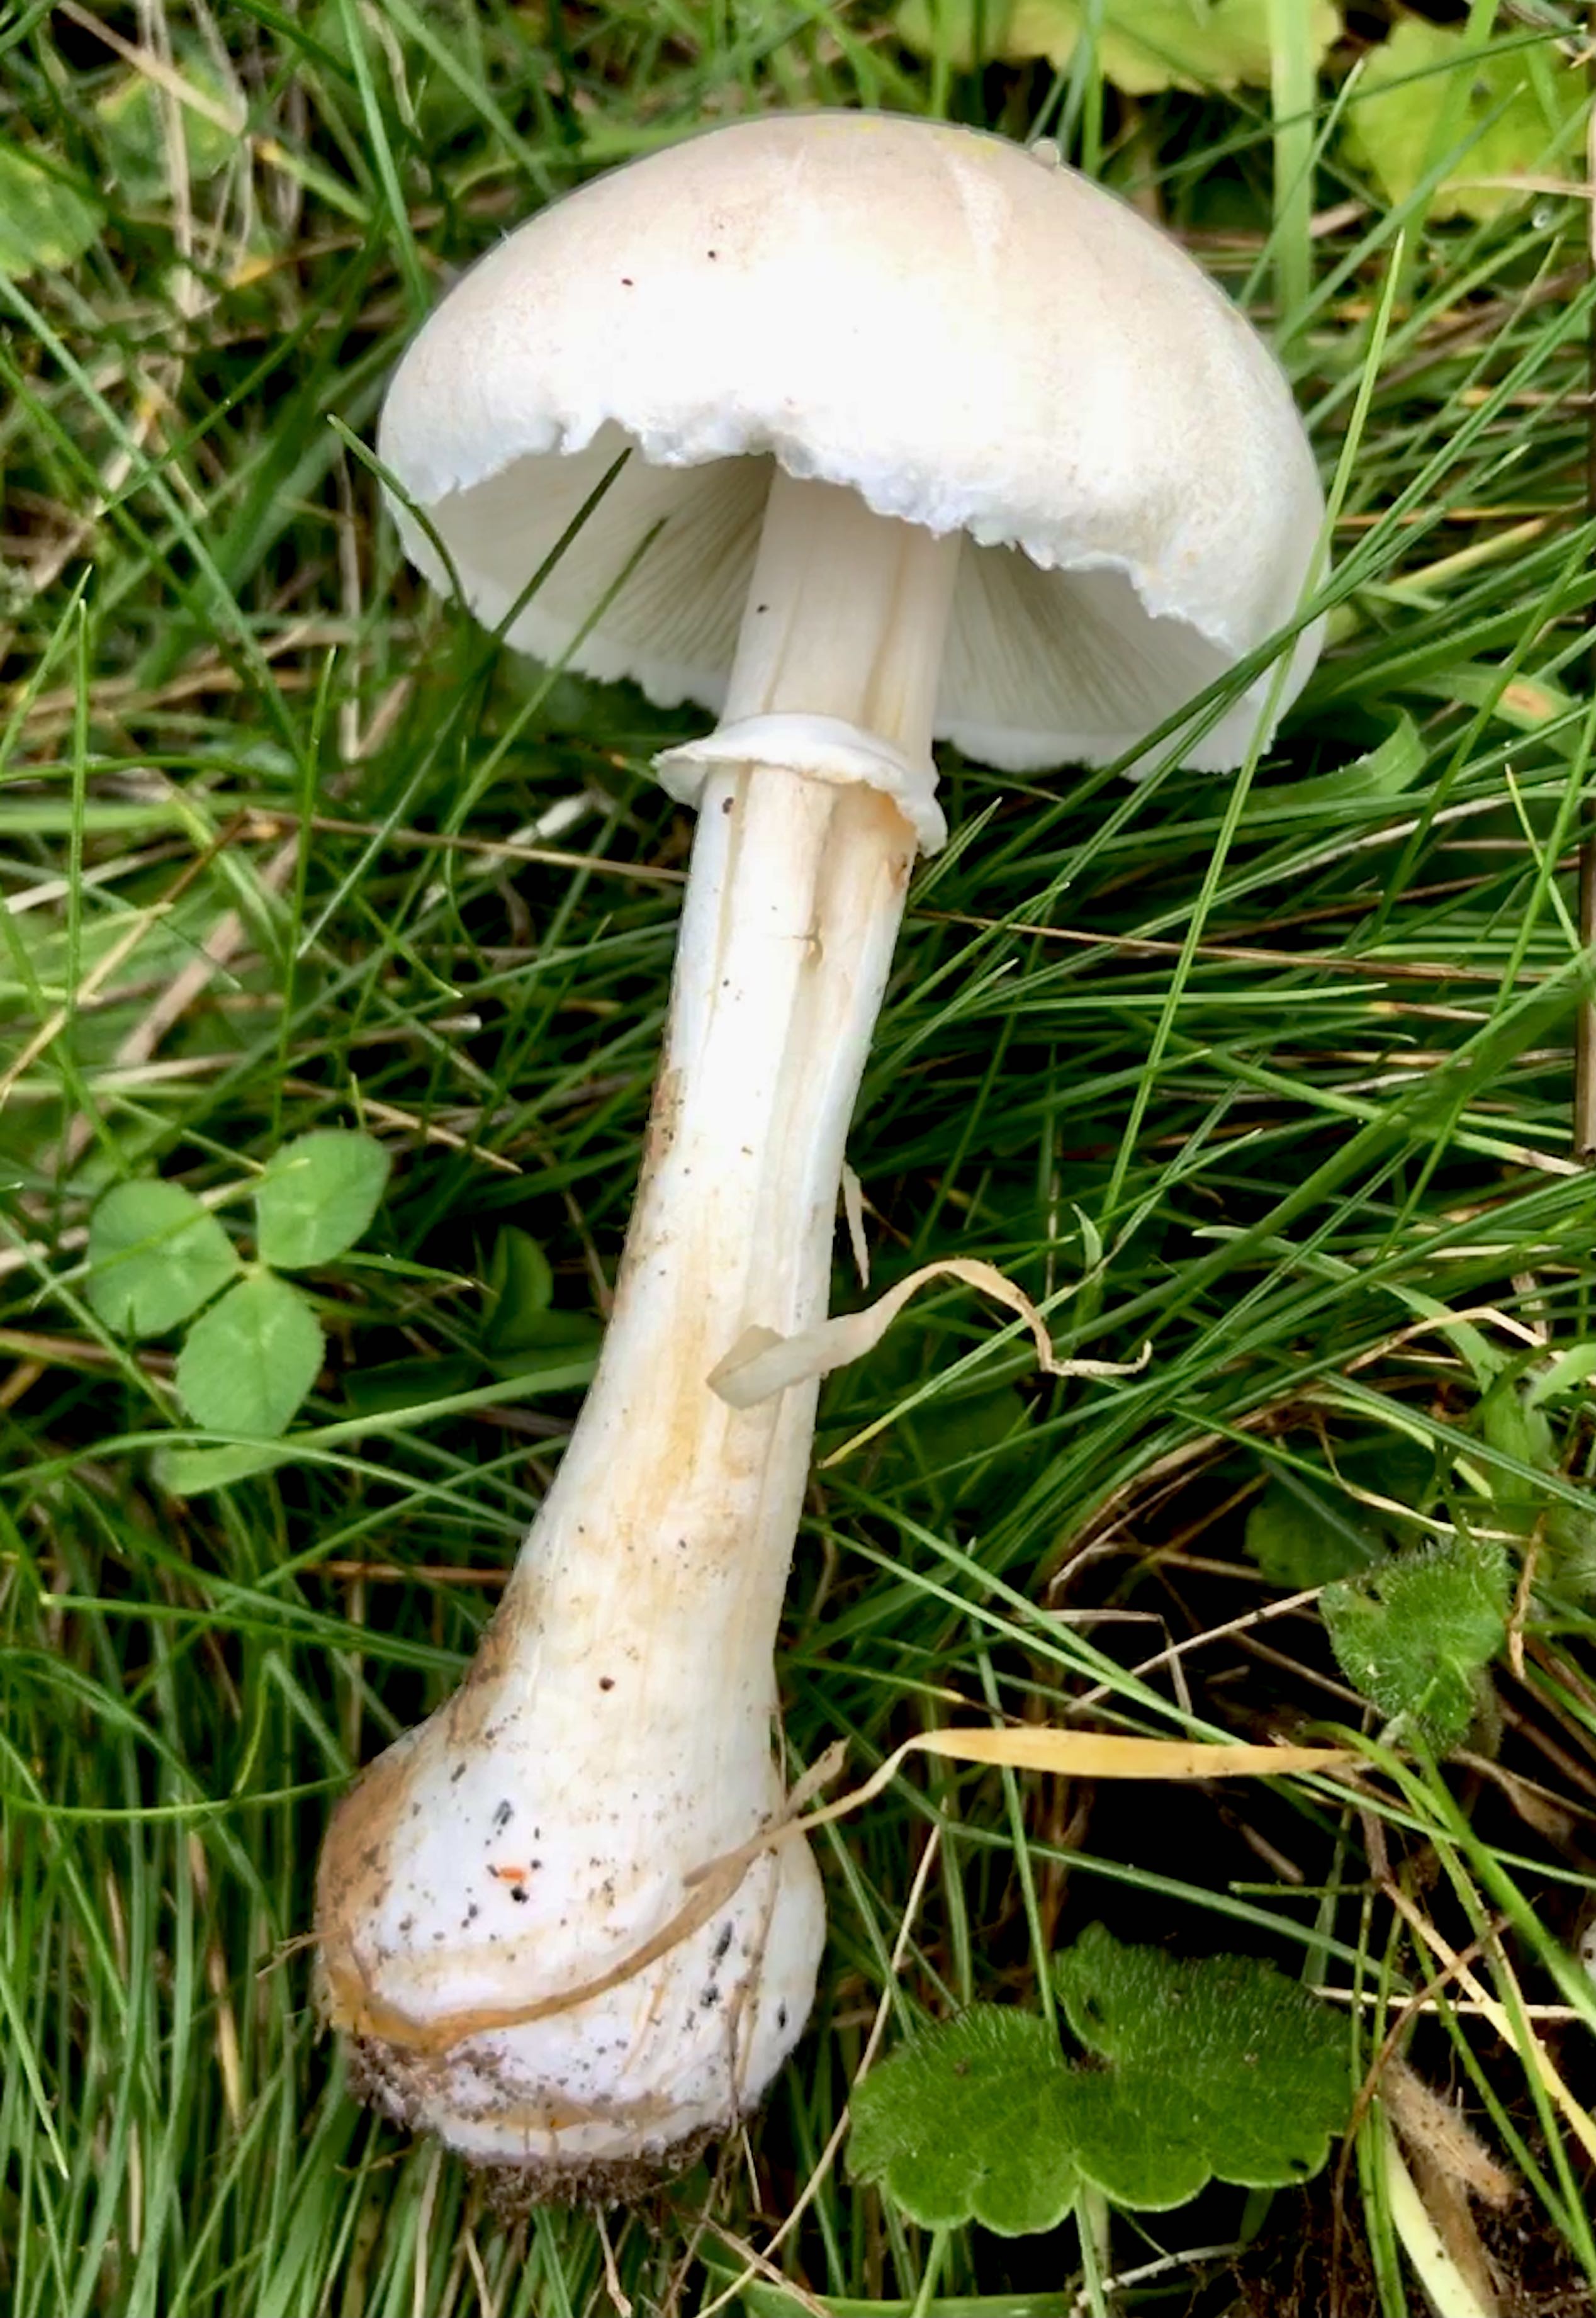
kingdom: Fungi
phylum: Basidiomycota
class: Agaricomycetes
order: Agaricales
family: Agaricaceae
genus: Leucoagaricus
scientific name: Leucoagaricus leucothites
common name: rosabladet silkehat
